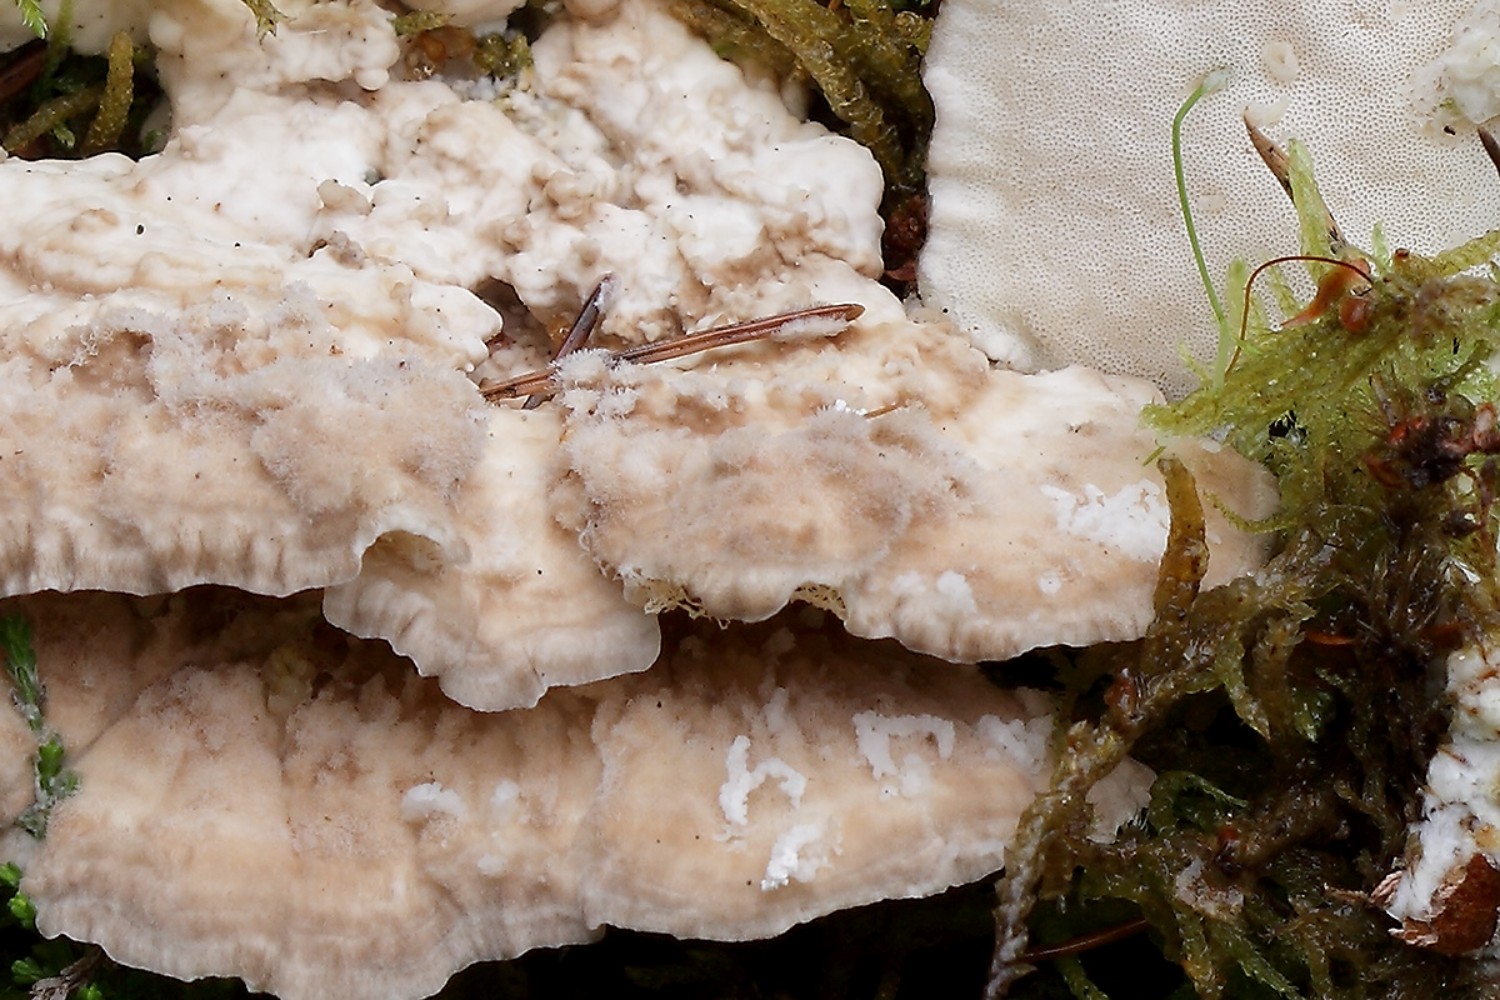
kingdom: Fungi
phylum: Basidiomycota
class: Agaricomycetes
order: Polyporales
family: Polyporaceae
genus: Trametes
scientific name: Trametes pubescens
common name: dunet læderporesvamp
